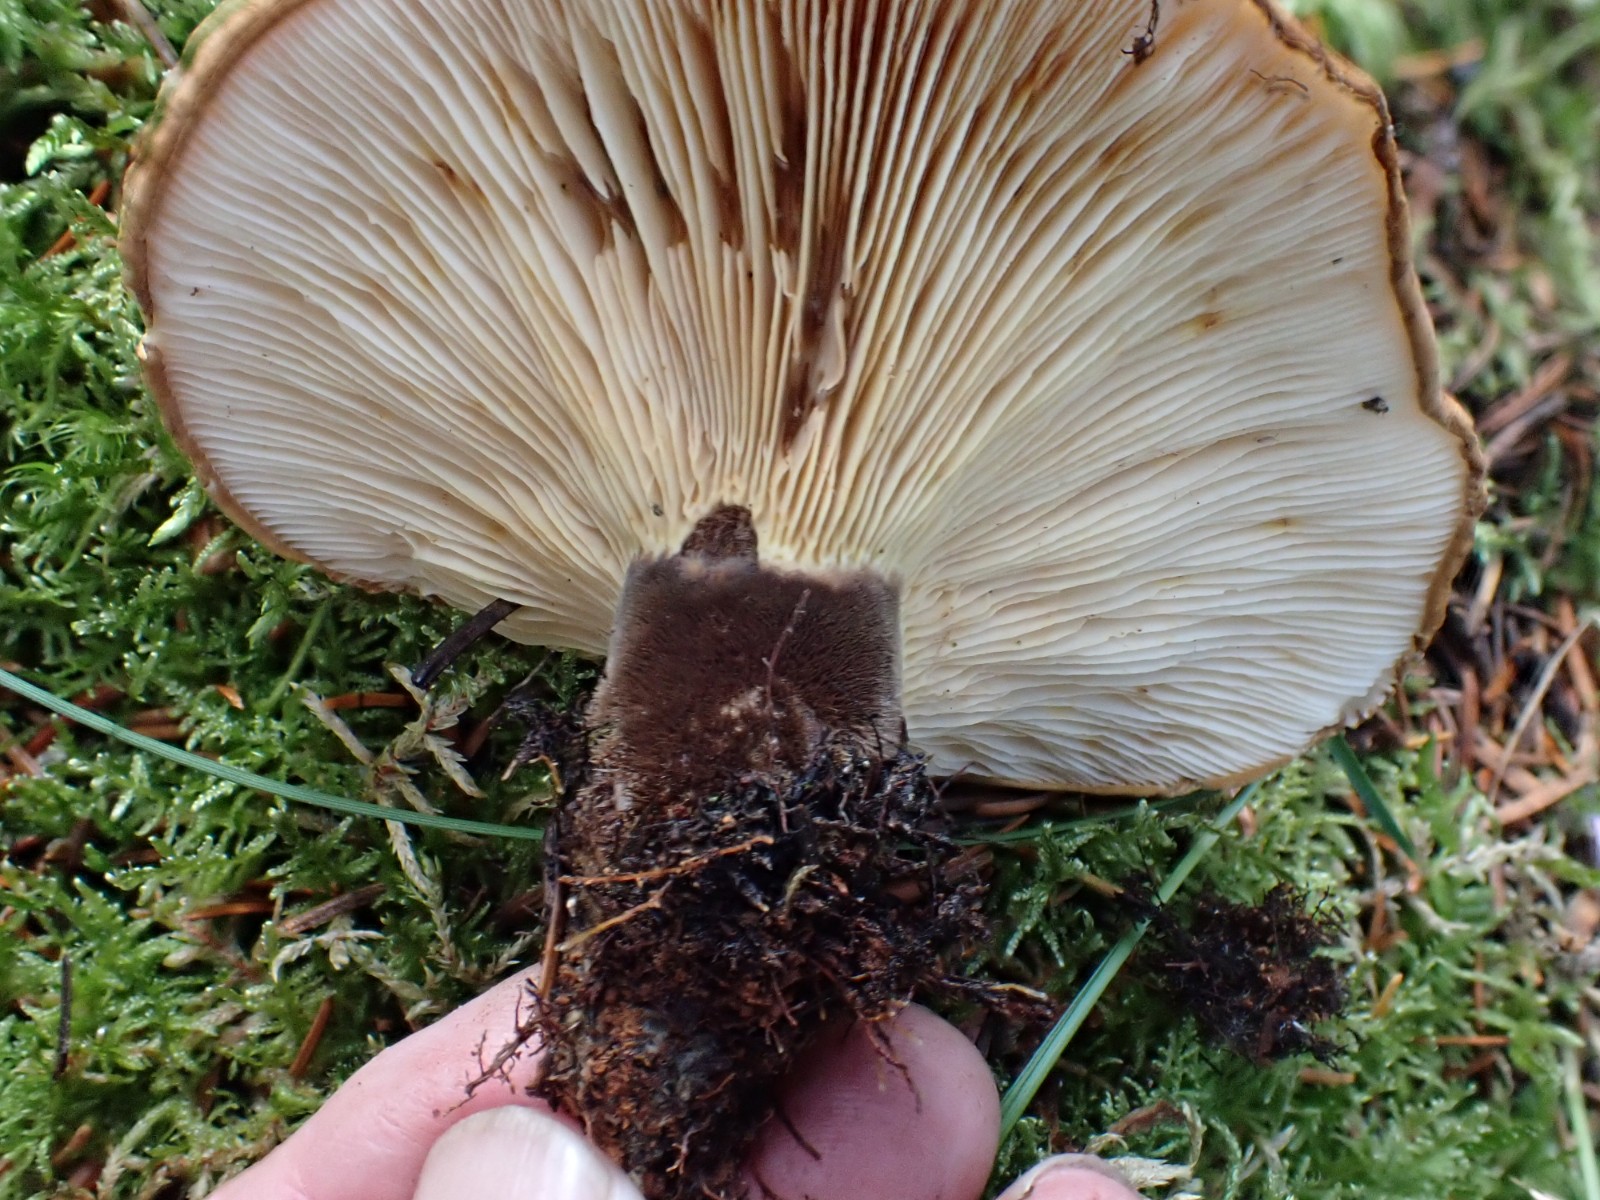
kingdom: Fungi
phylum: Basidiomycota
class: Agaricomycetes
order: Boletales
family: Tapinellaceae
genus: Tapinella
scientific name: Tapinella atrotomentosa
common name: sortfiltet viftesvamp
